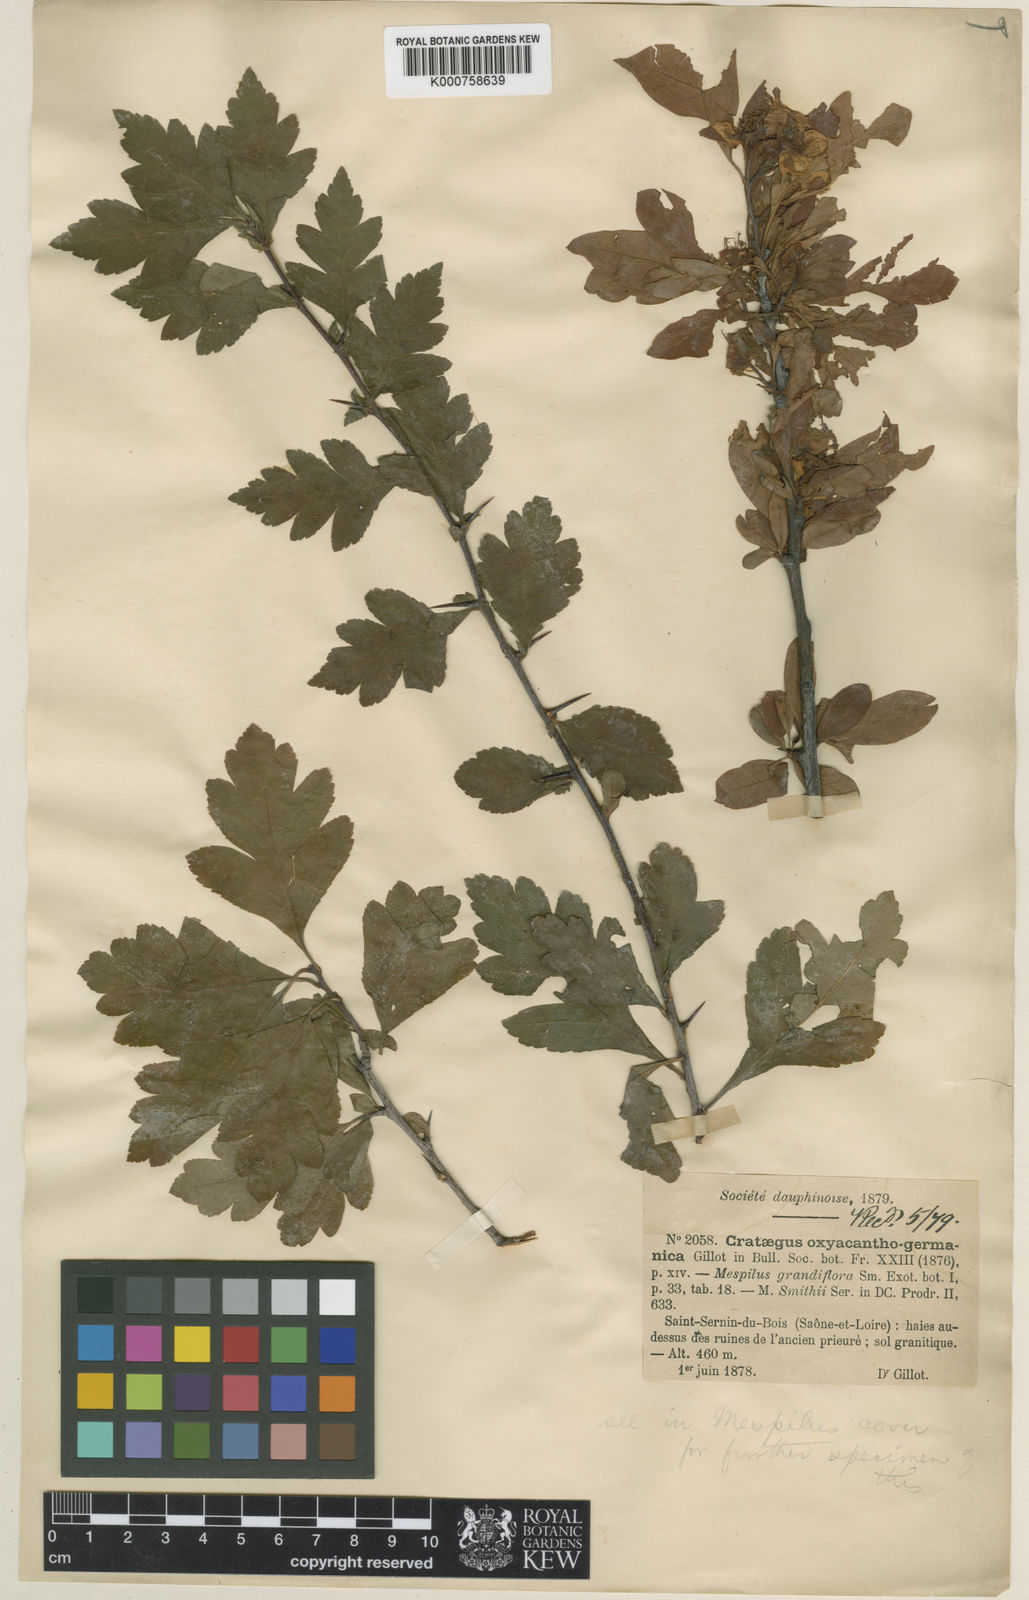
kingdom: Plantae
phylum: Tracheophyta
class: Magnoliopsida
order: Rosales
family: Rosaceae
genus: Mespilus
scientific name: Mespilus
